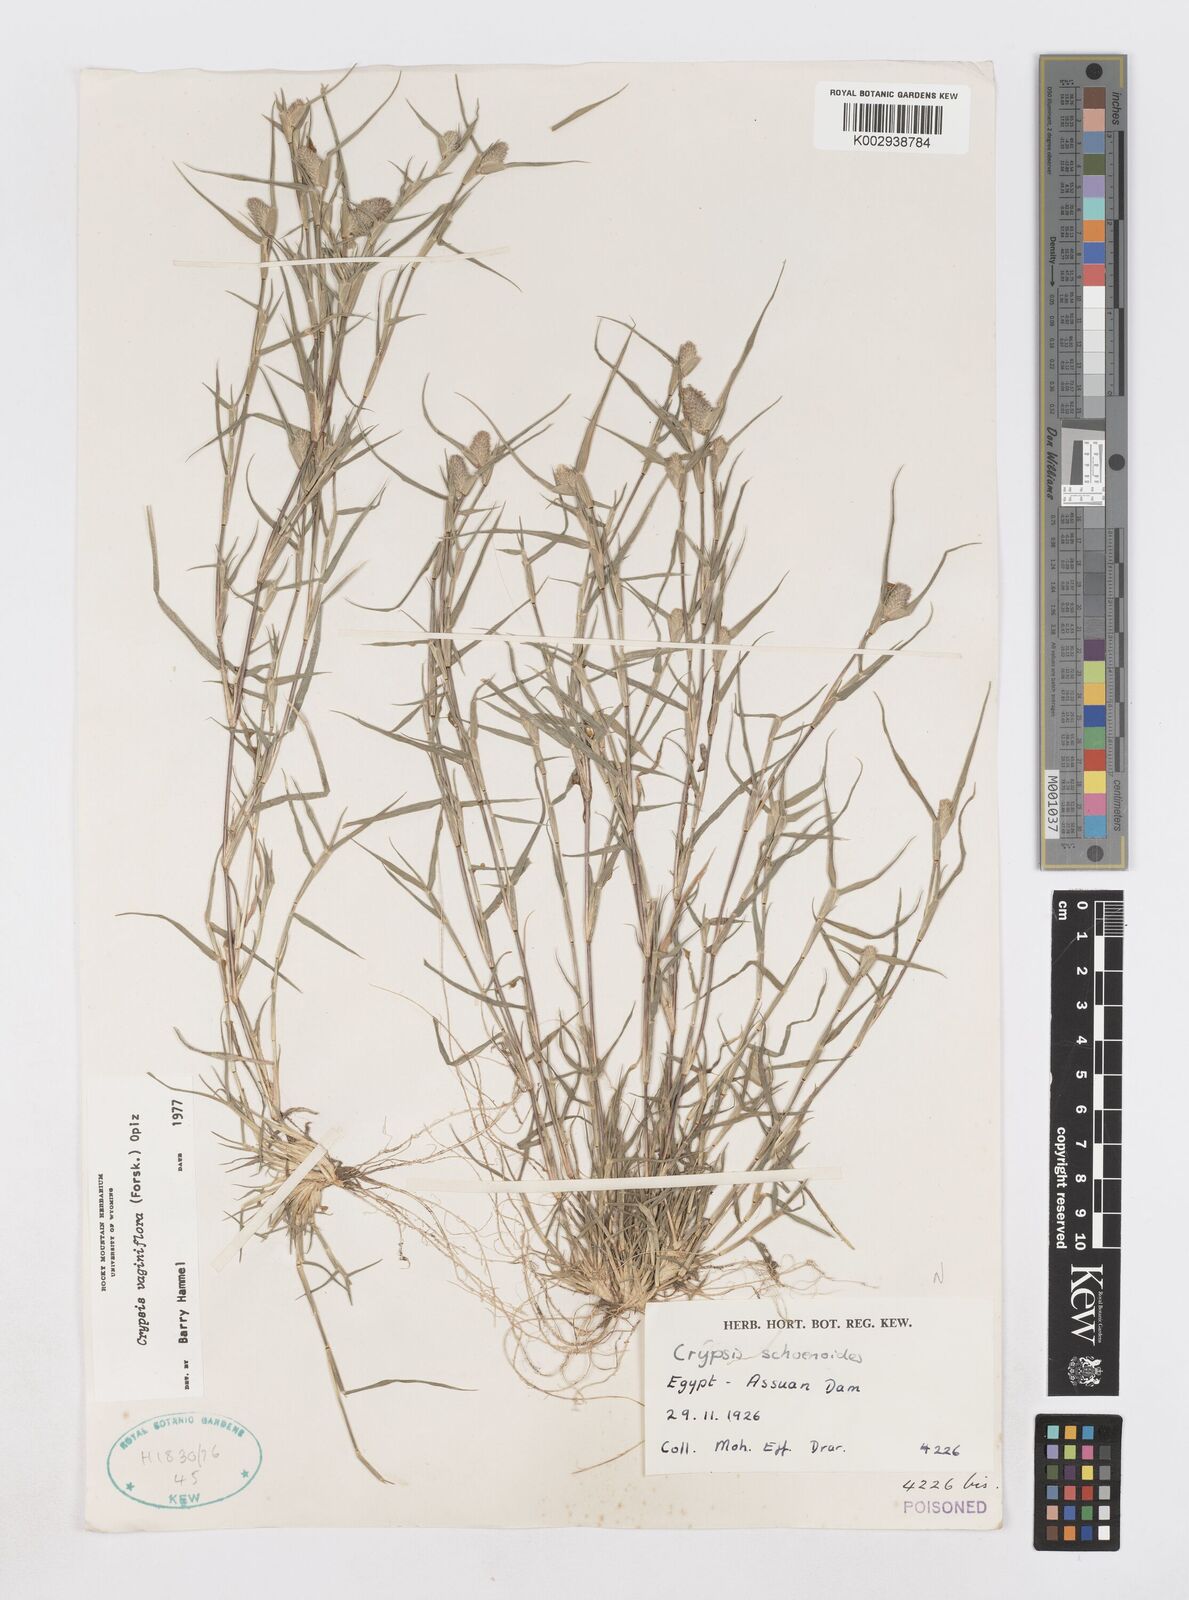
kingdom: Plantae
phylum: Tracheophyta
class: Liliopsida
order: Poales
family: Poaceae
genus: Sporobolus
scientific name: Sporobolus niliacus
